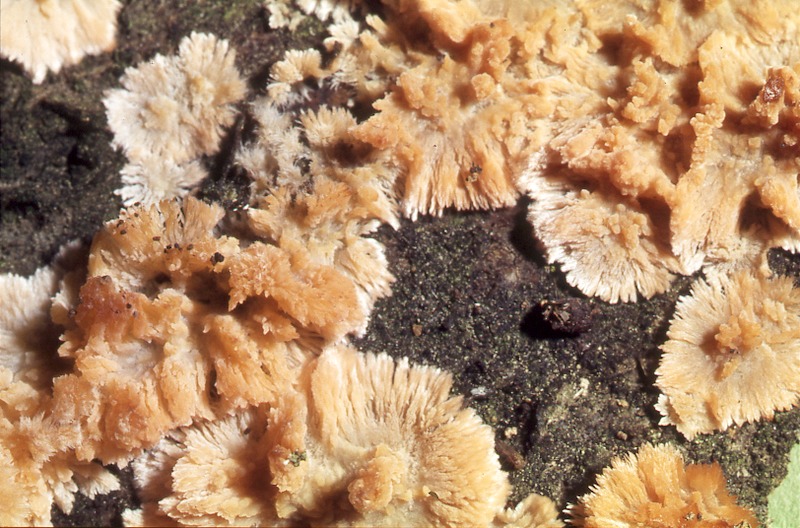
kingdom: Fungi
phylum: Basidiomycota
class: Agaricomycetes
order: Polyporales
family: Meruliaceae
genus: Phlebia
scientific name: Phlebia radiata
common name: Wrinkled crust
